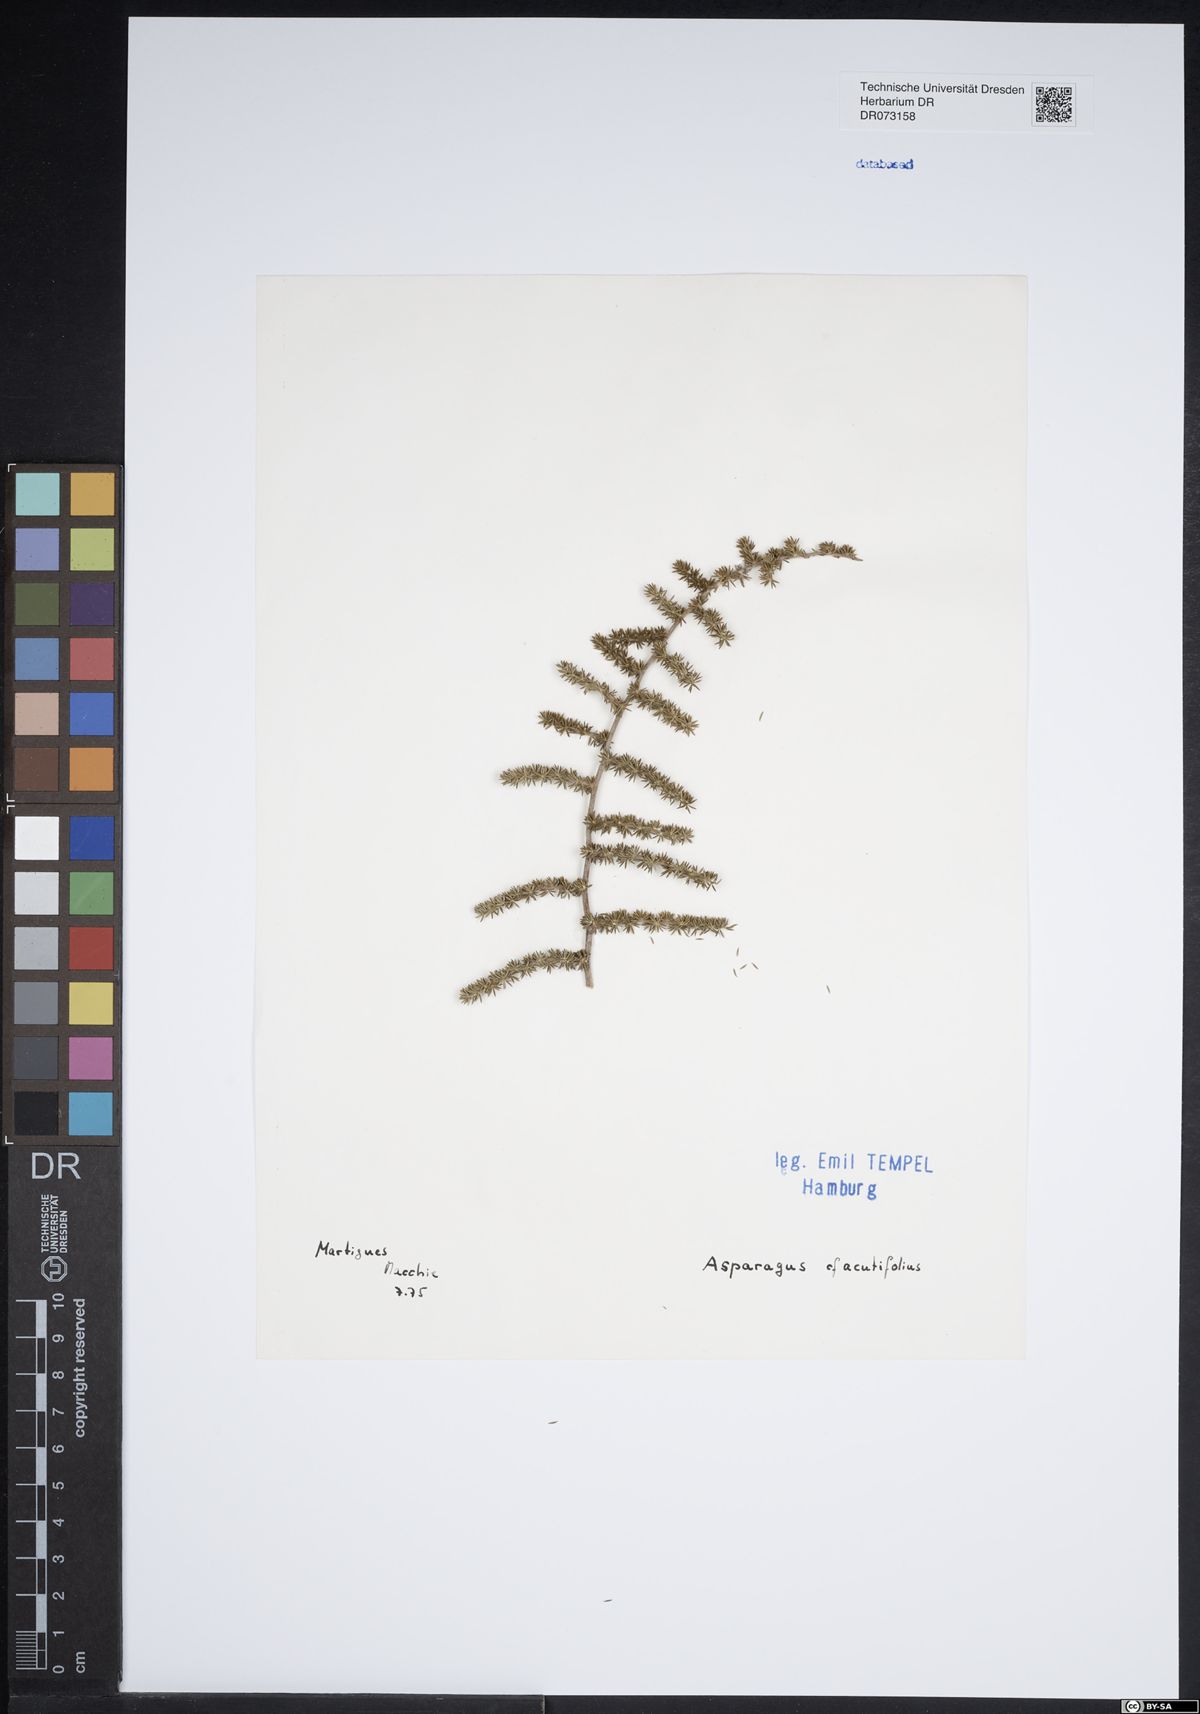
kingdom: Plantae
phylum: Tracheophyta
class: Liliopsida
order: Asparagales
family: Asparagaceae
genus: Asparagus
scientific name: Asparagus acutifolius
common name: Wild asparagus
